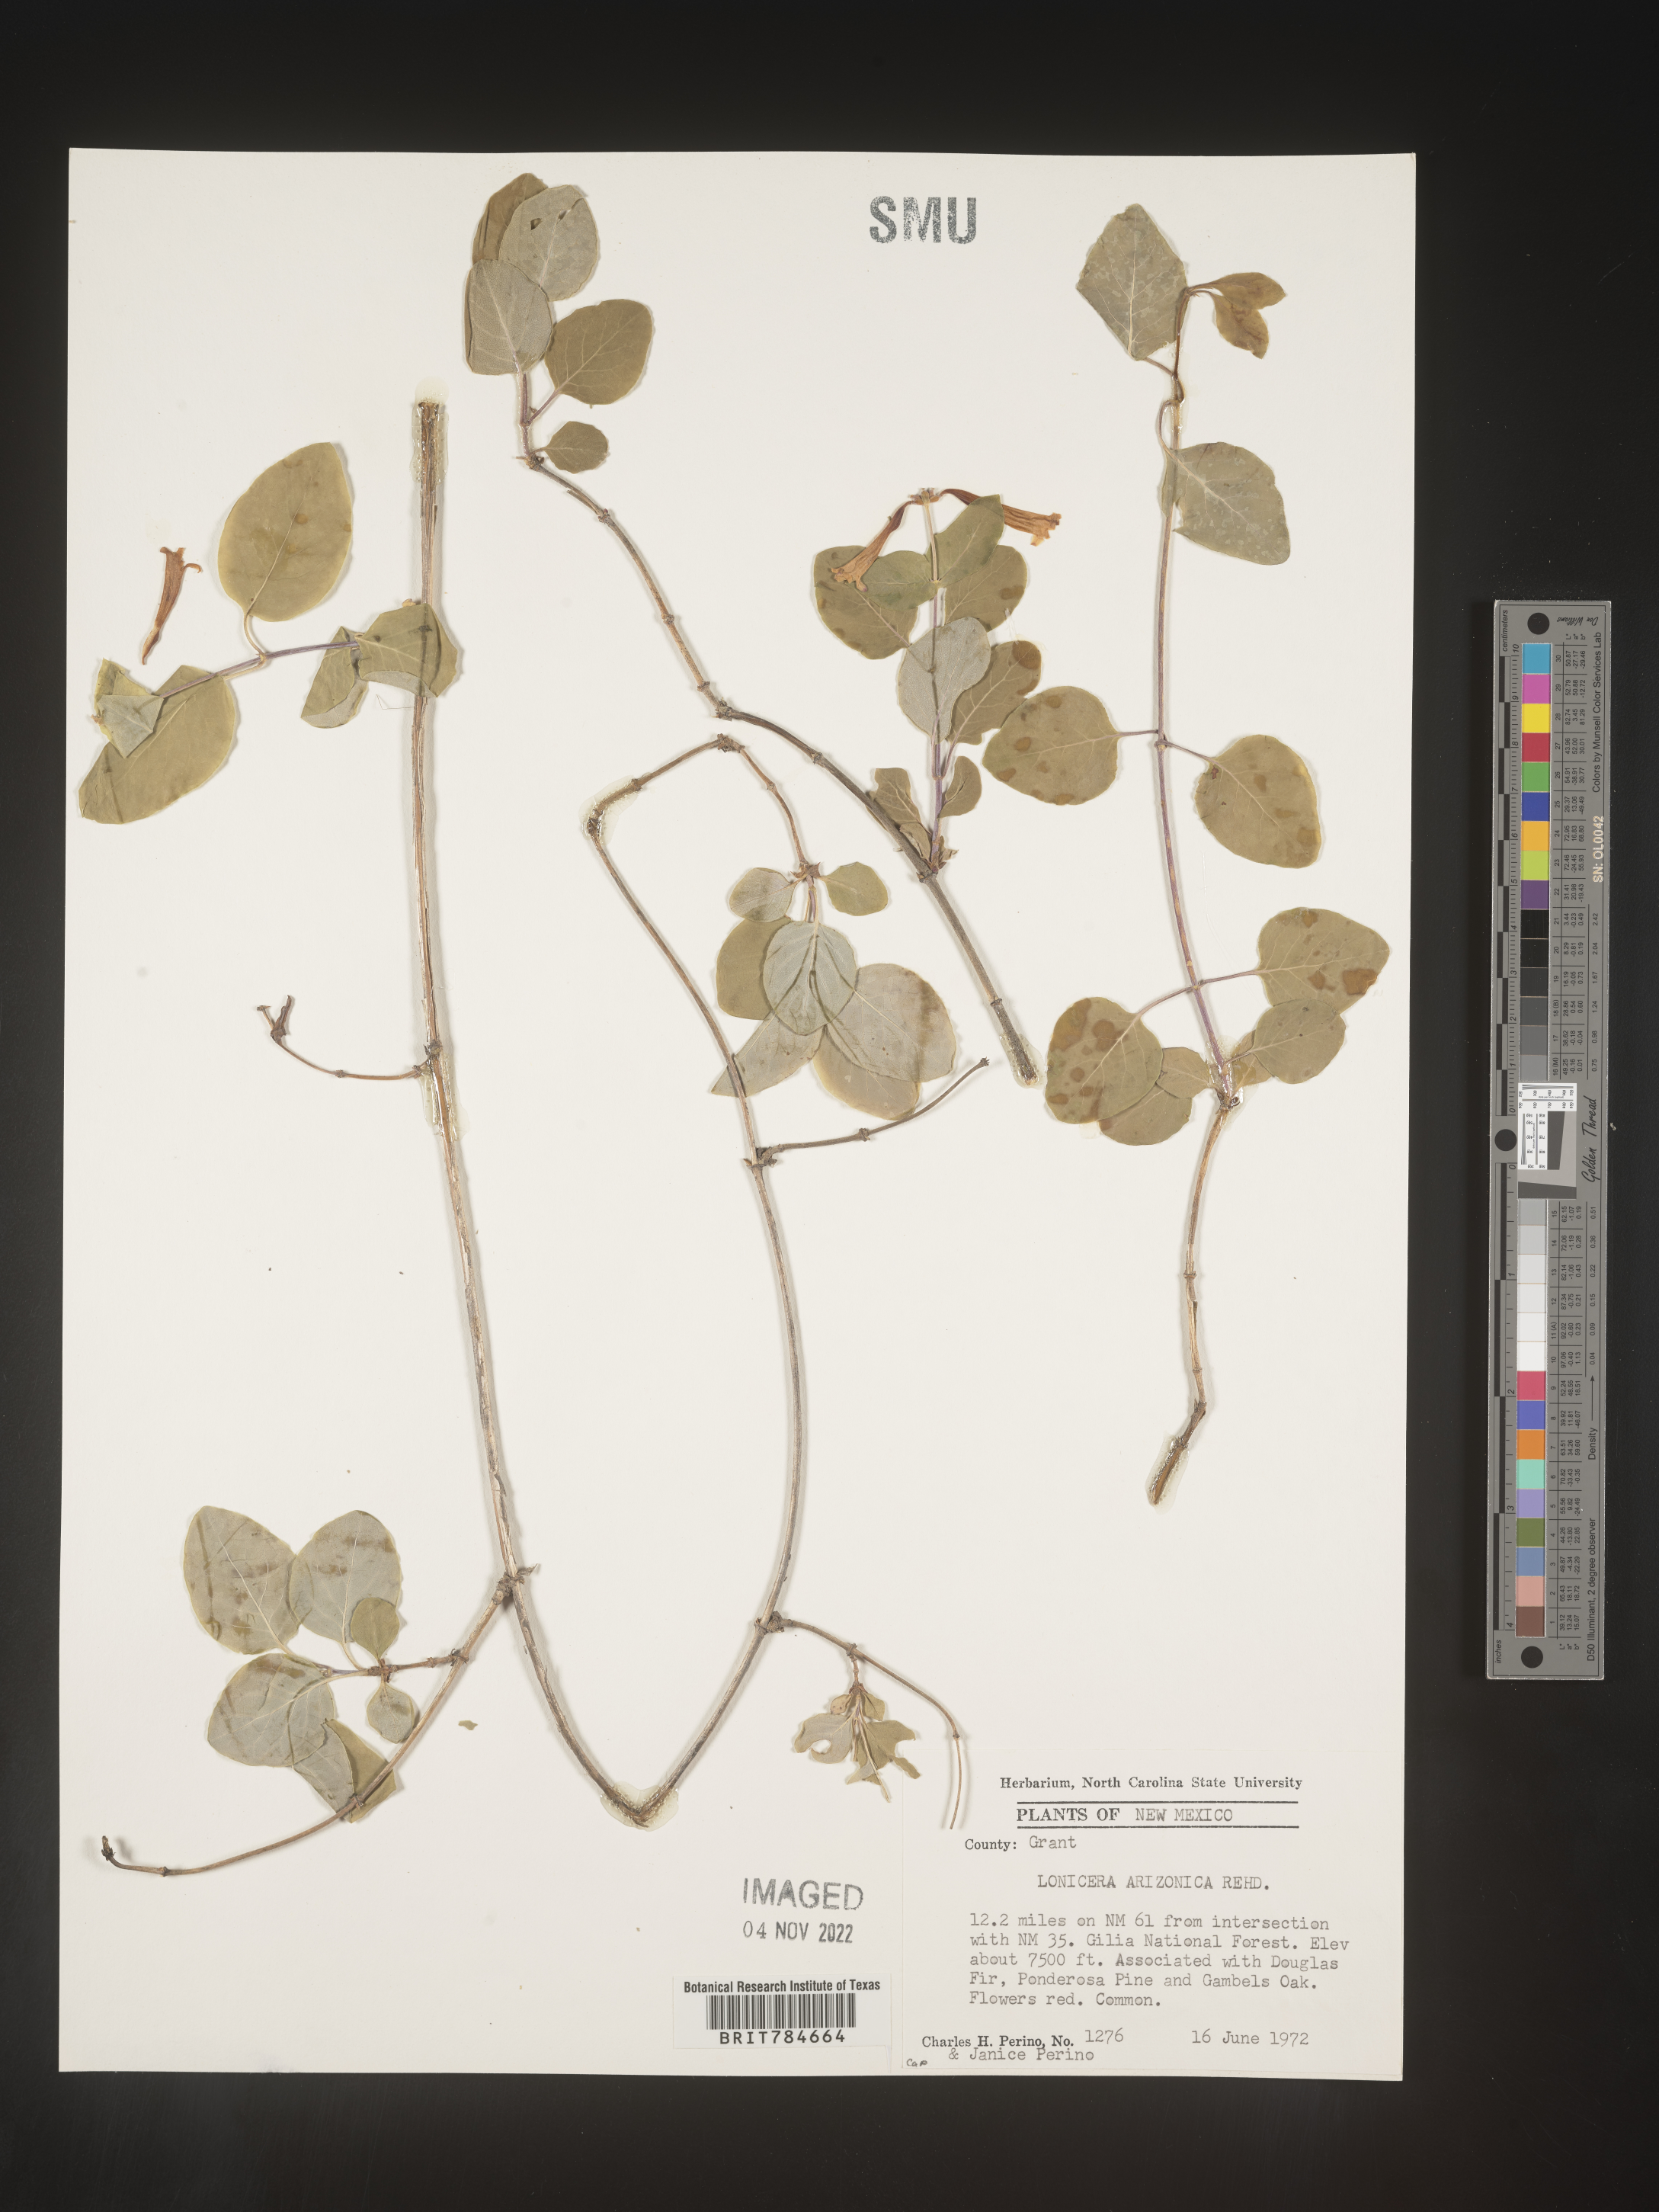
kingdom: Plantae
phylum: Tracheophyta
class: Magnoliopsida
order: Dipsacales
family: Caprifoliaceae
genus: Lonicera
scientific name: Lonicera arizonica
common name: Arizona honeysuckle
